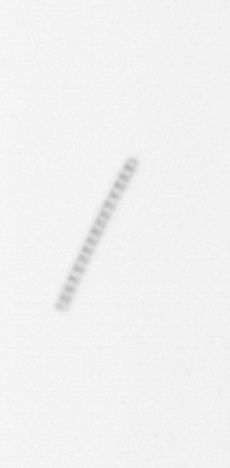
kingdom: Chromista
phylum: Ochrophyta
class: Bacillariophyceae
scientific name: Bacillariophyceae
